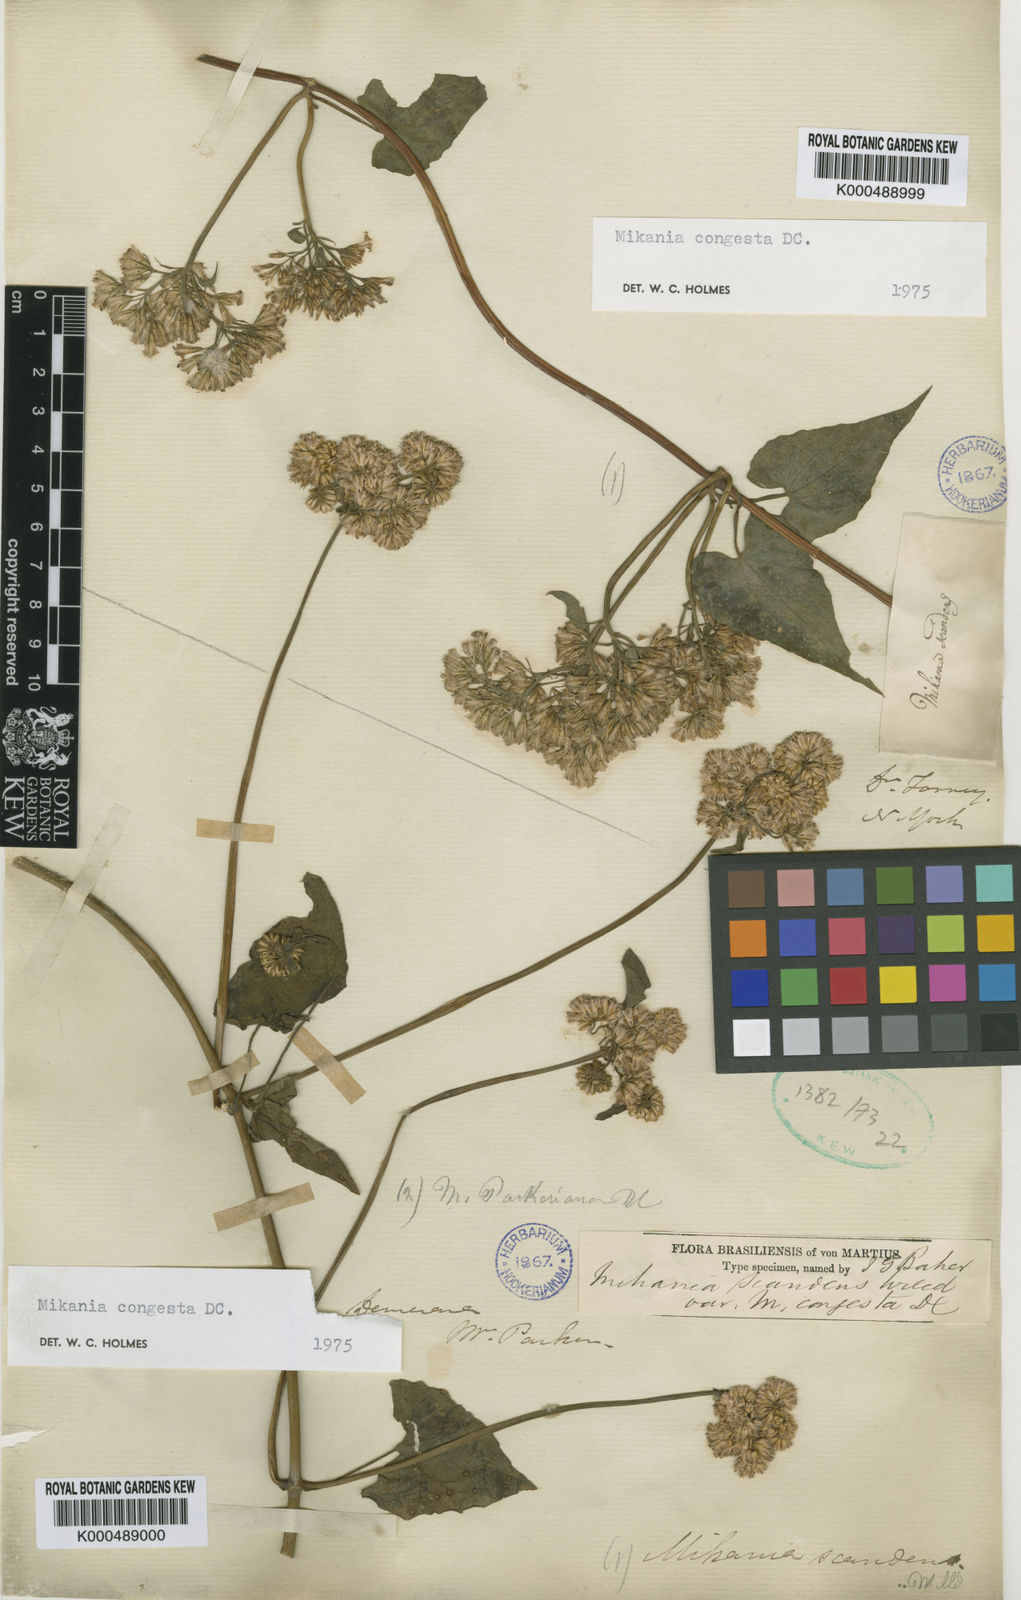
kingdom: Plantae
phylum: Tracheophyta
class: Magnoliopsida
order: Asterales
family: Asteraceae
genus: Mikania
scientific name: Mikania congesta
